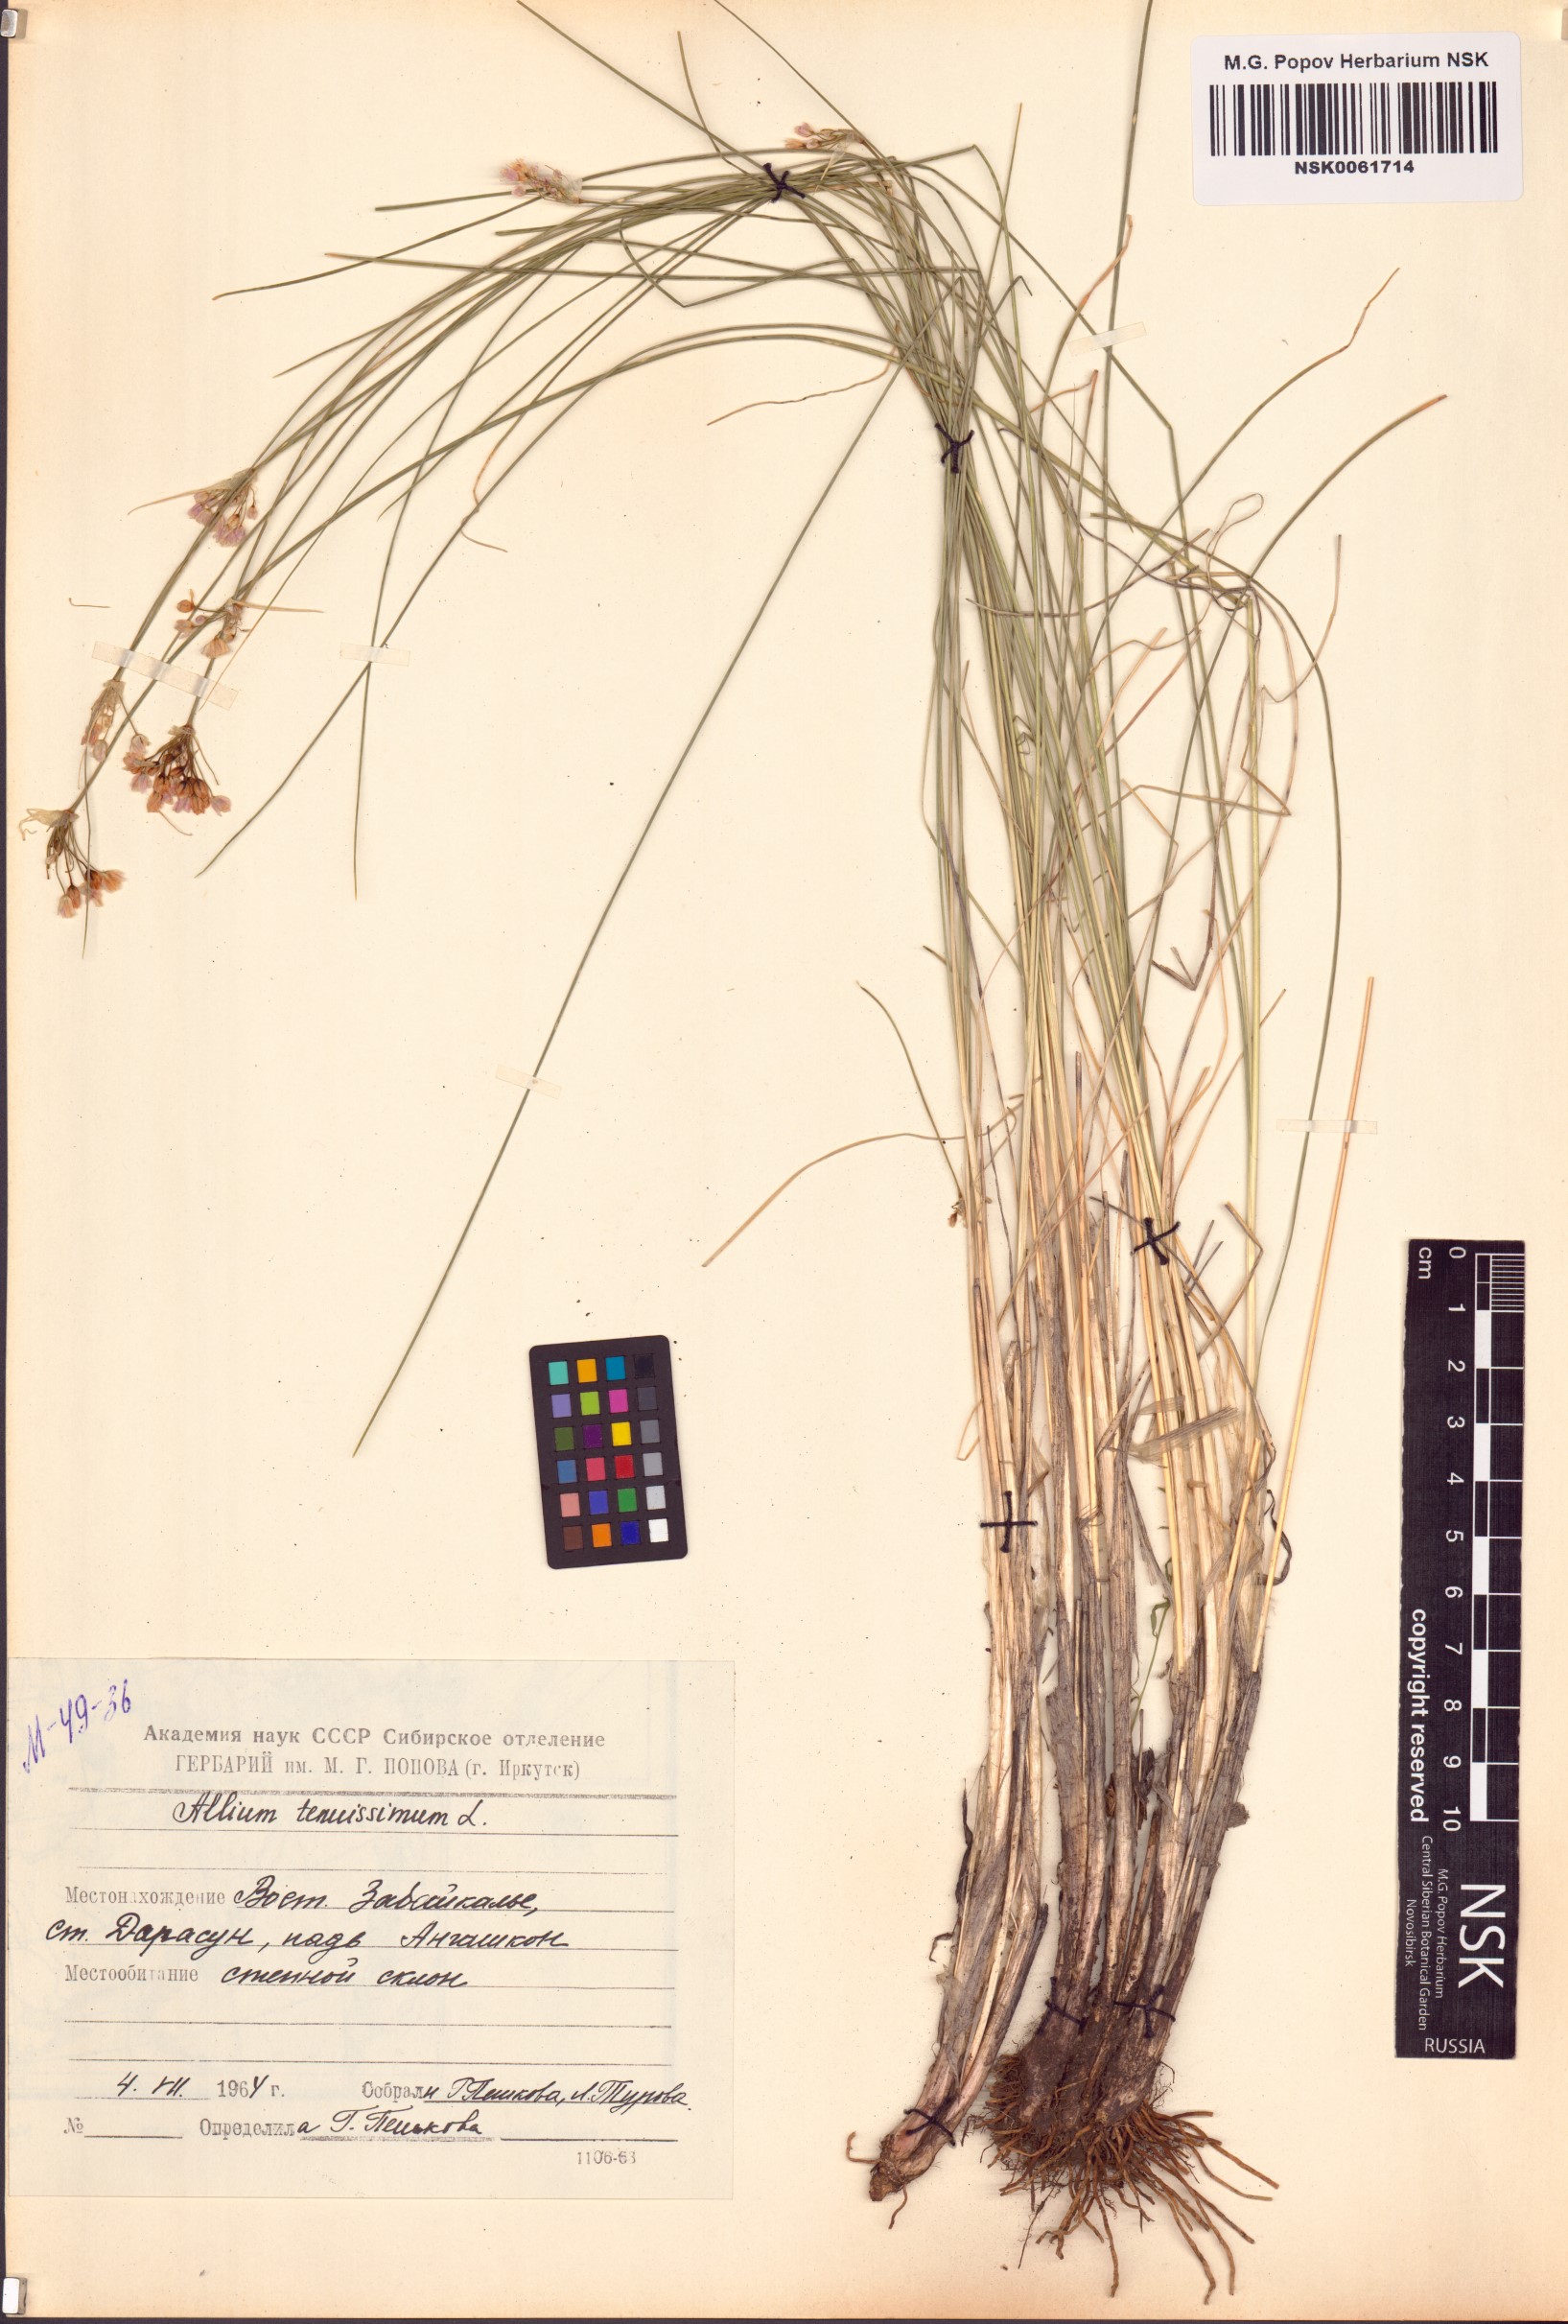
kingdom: Plantae
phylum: Tracheophyta
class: Liliopsida
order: Asparagales
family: Amaryllidaceae
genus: Allium
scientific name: Allium tenuissimum
